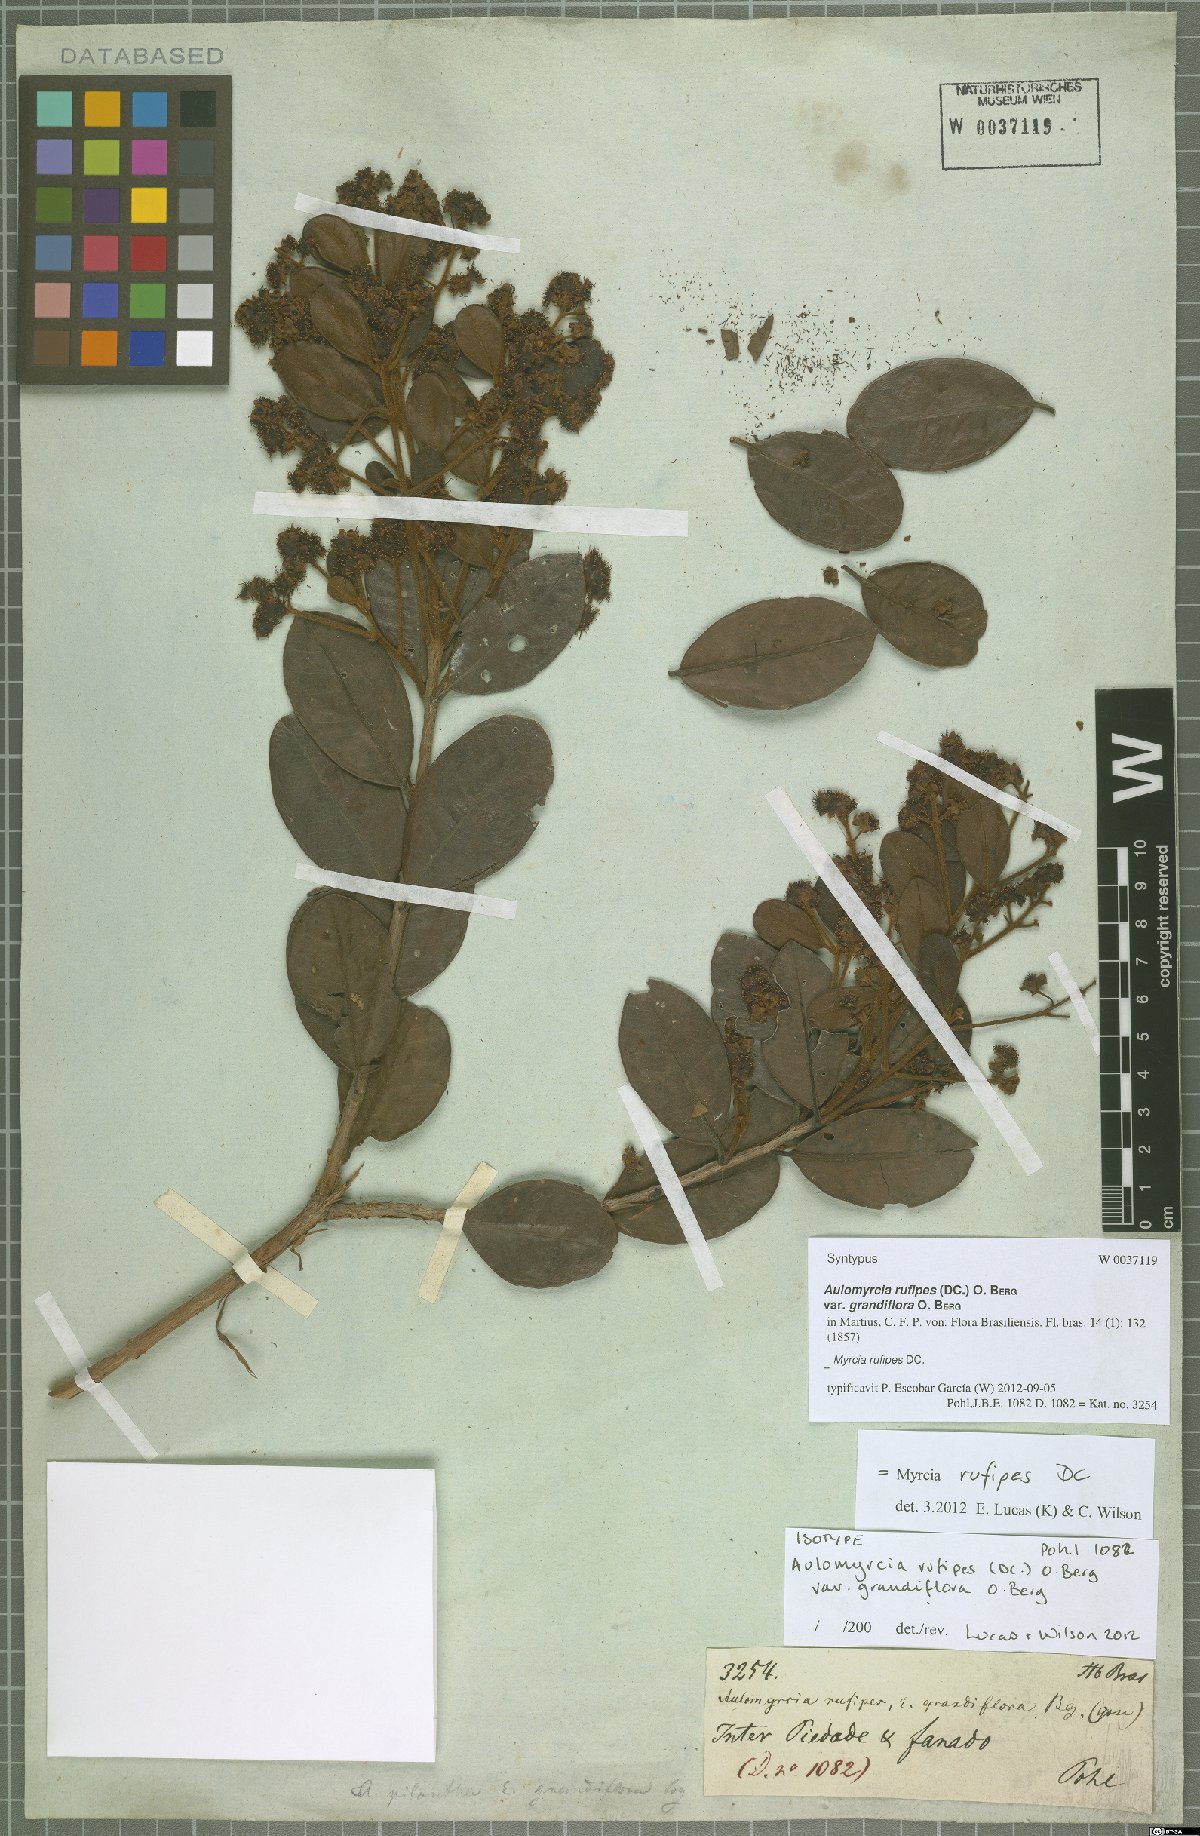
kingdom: Plantae
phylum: Tracheophyta
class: Magnoliopsida
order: Myrtales
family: Myrtaceae
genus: Myrcia
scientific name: Myrcia rufipes
